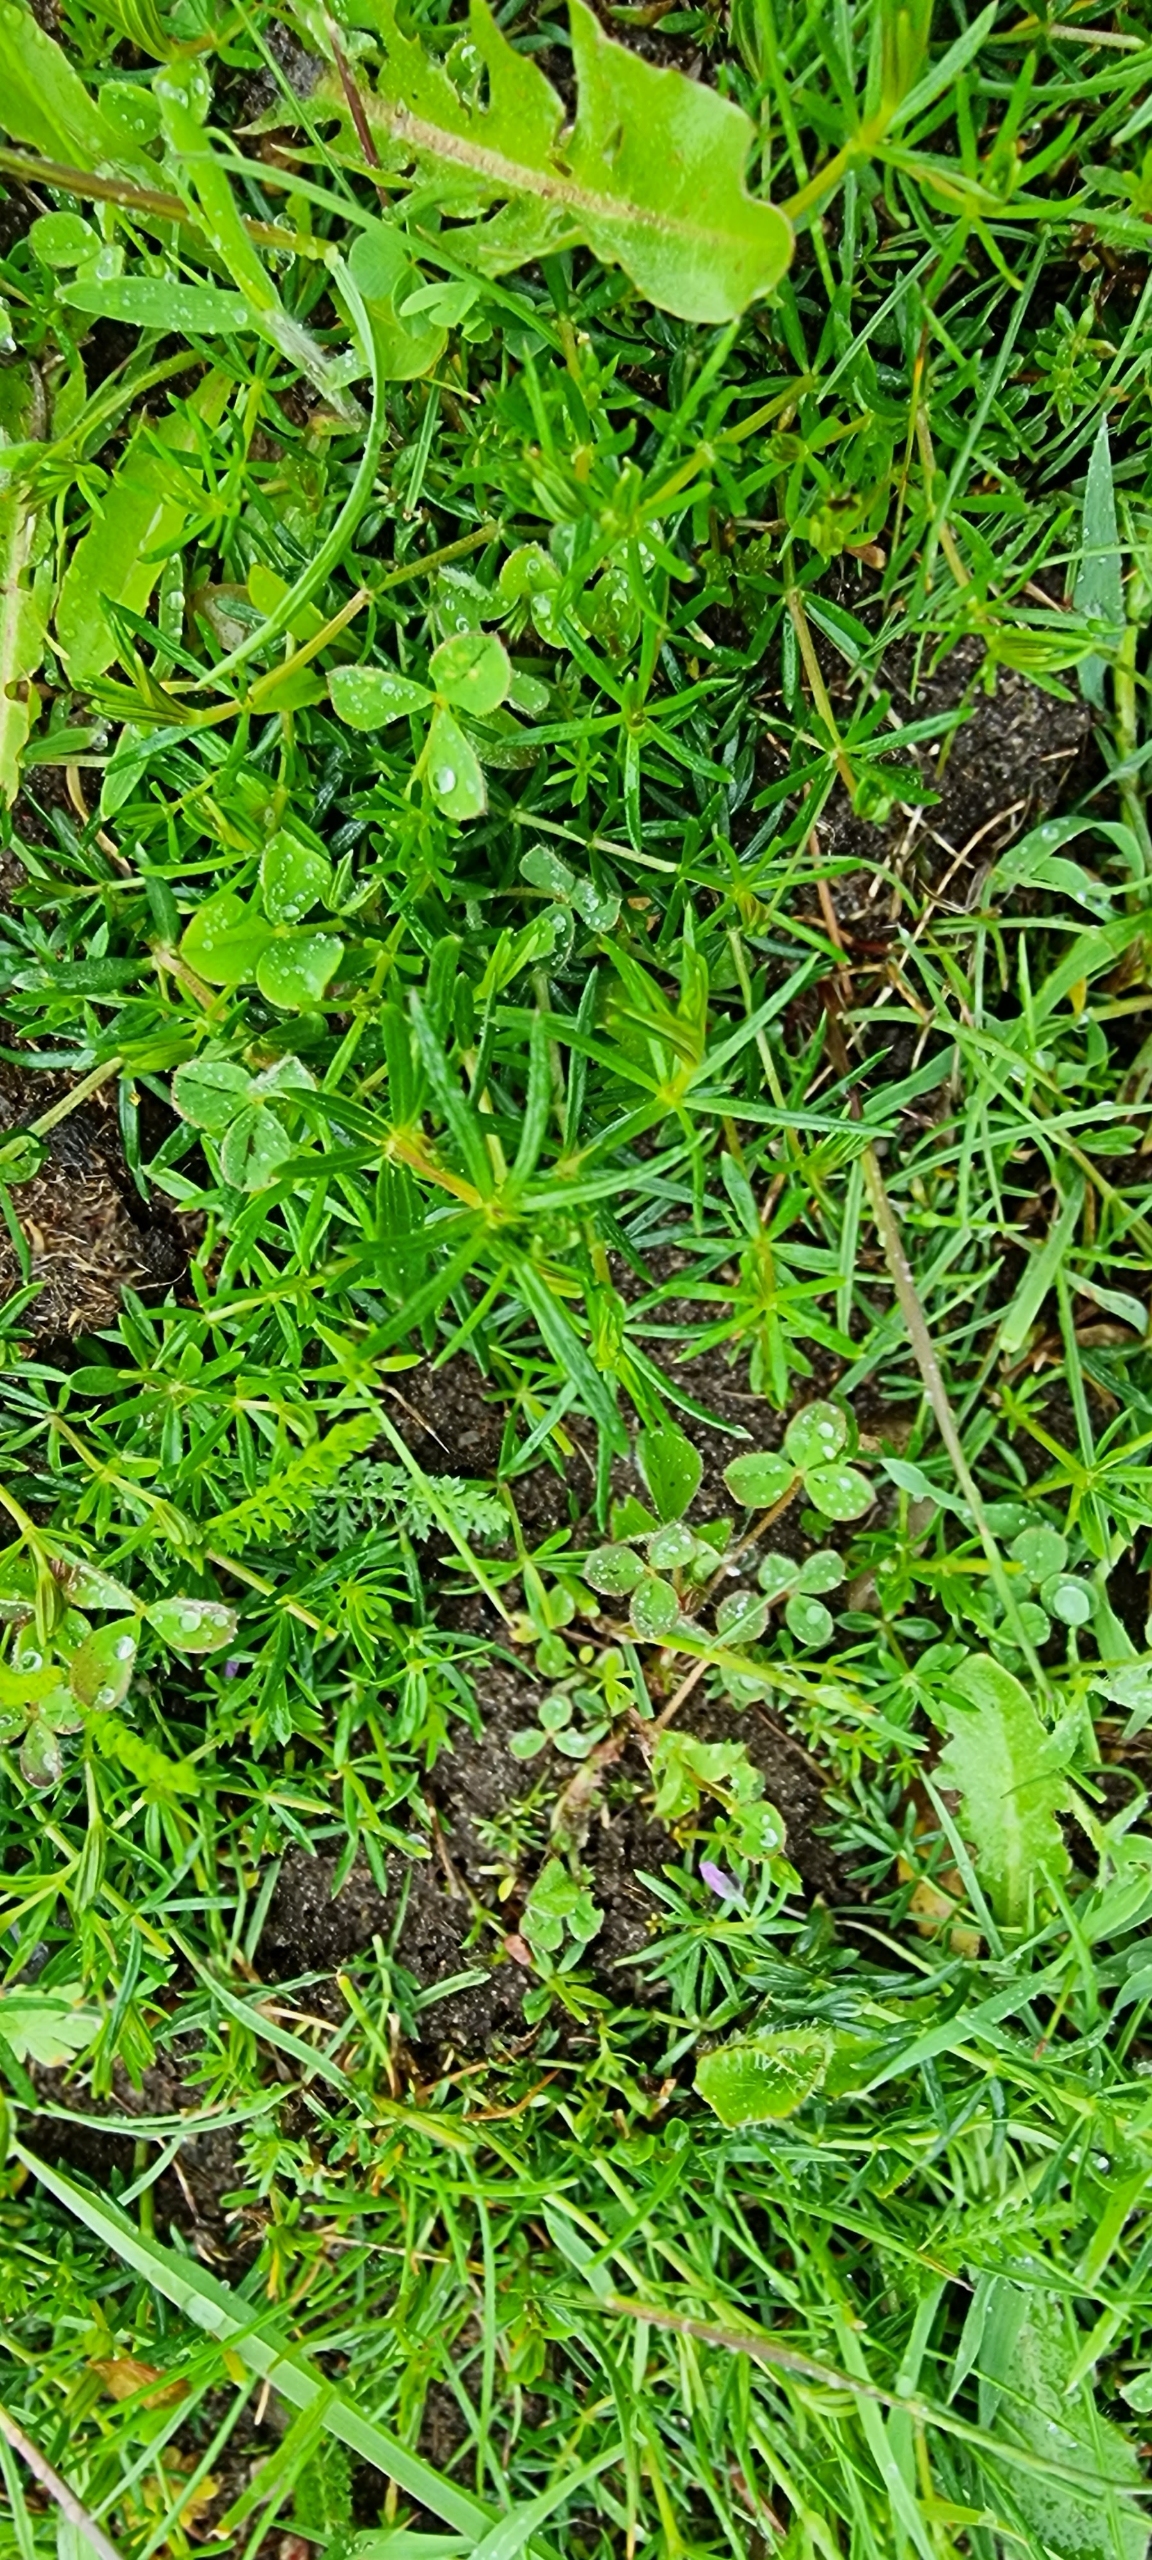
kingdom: Plantae
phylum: Tracheophyta
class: Magnoliopsida
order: Gentianales
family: Rubiaceae
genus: Galium
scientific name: Galium verum
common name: Gul snerre
